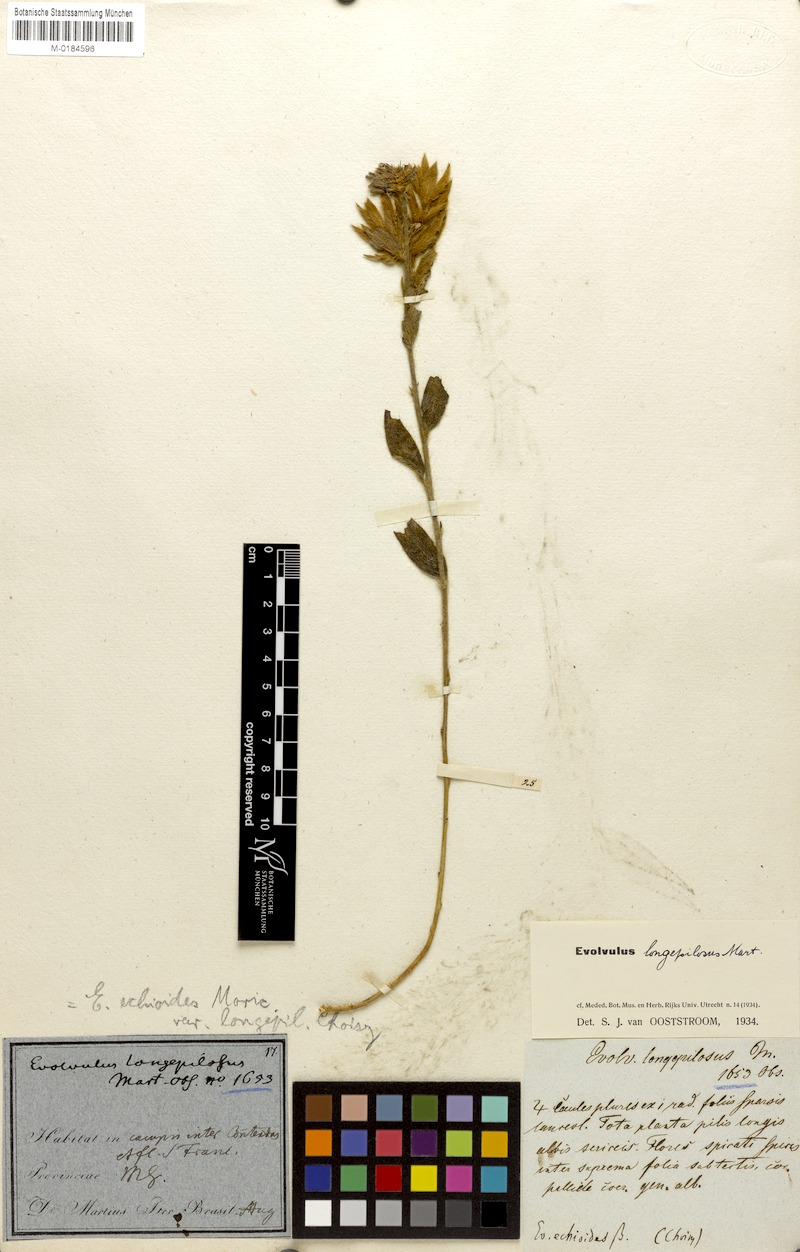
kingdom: Plantae
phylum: Tracheophyta
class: Magnoliopsida
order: Solanales
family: Convolvulaceae
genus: Evolvulus
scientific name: Evolvulus longepilosus
